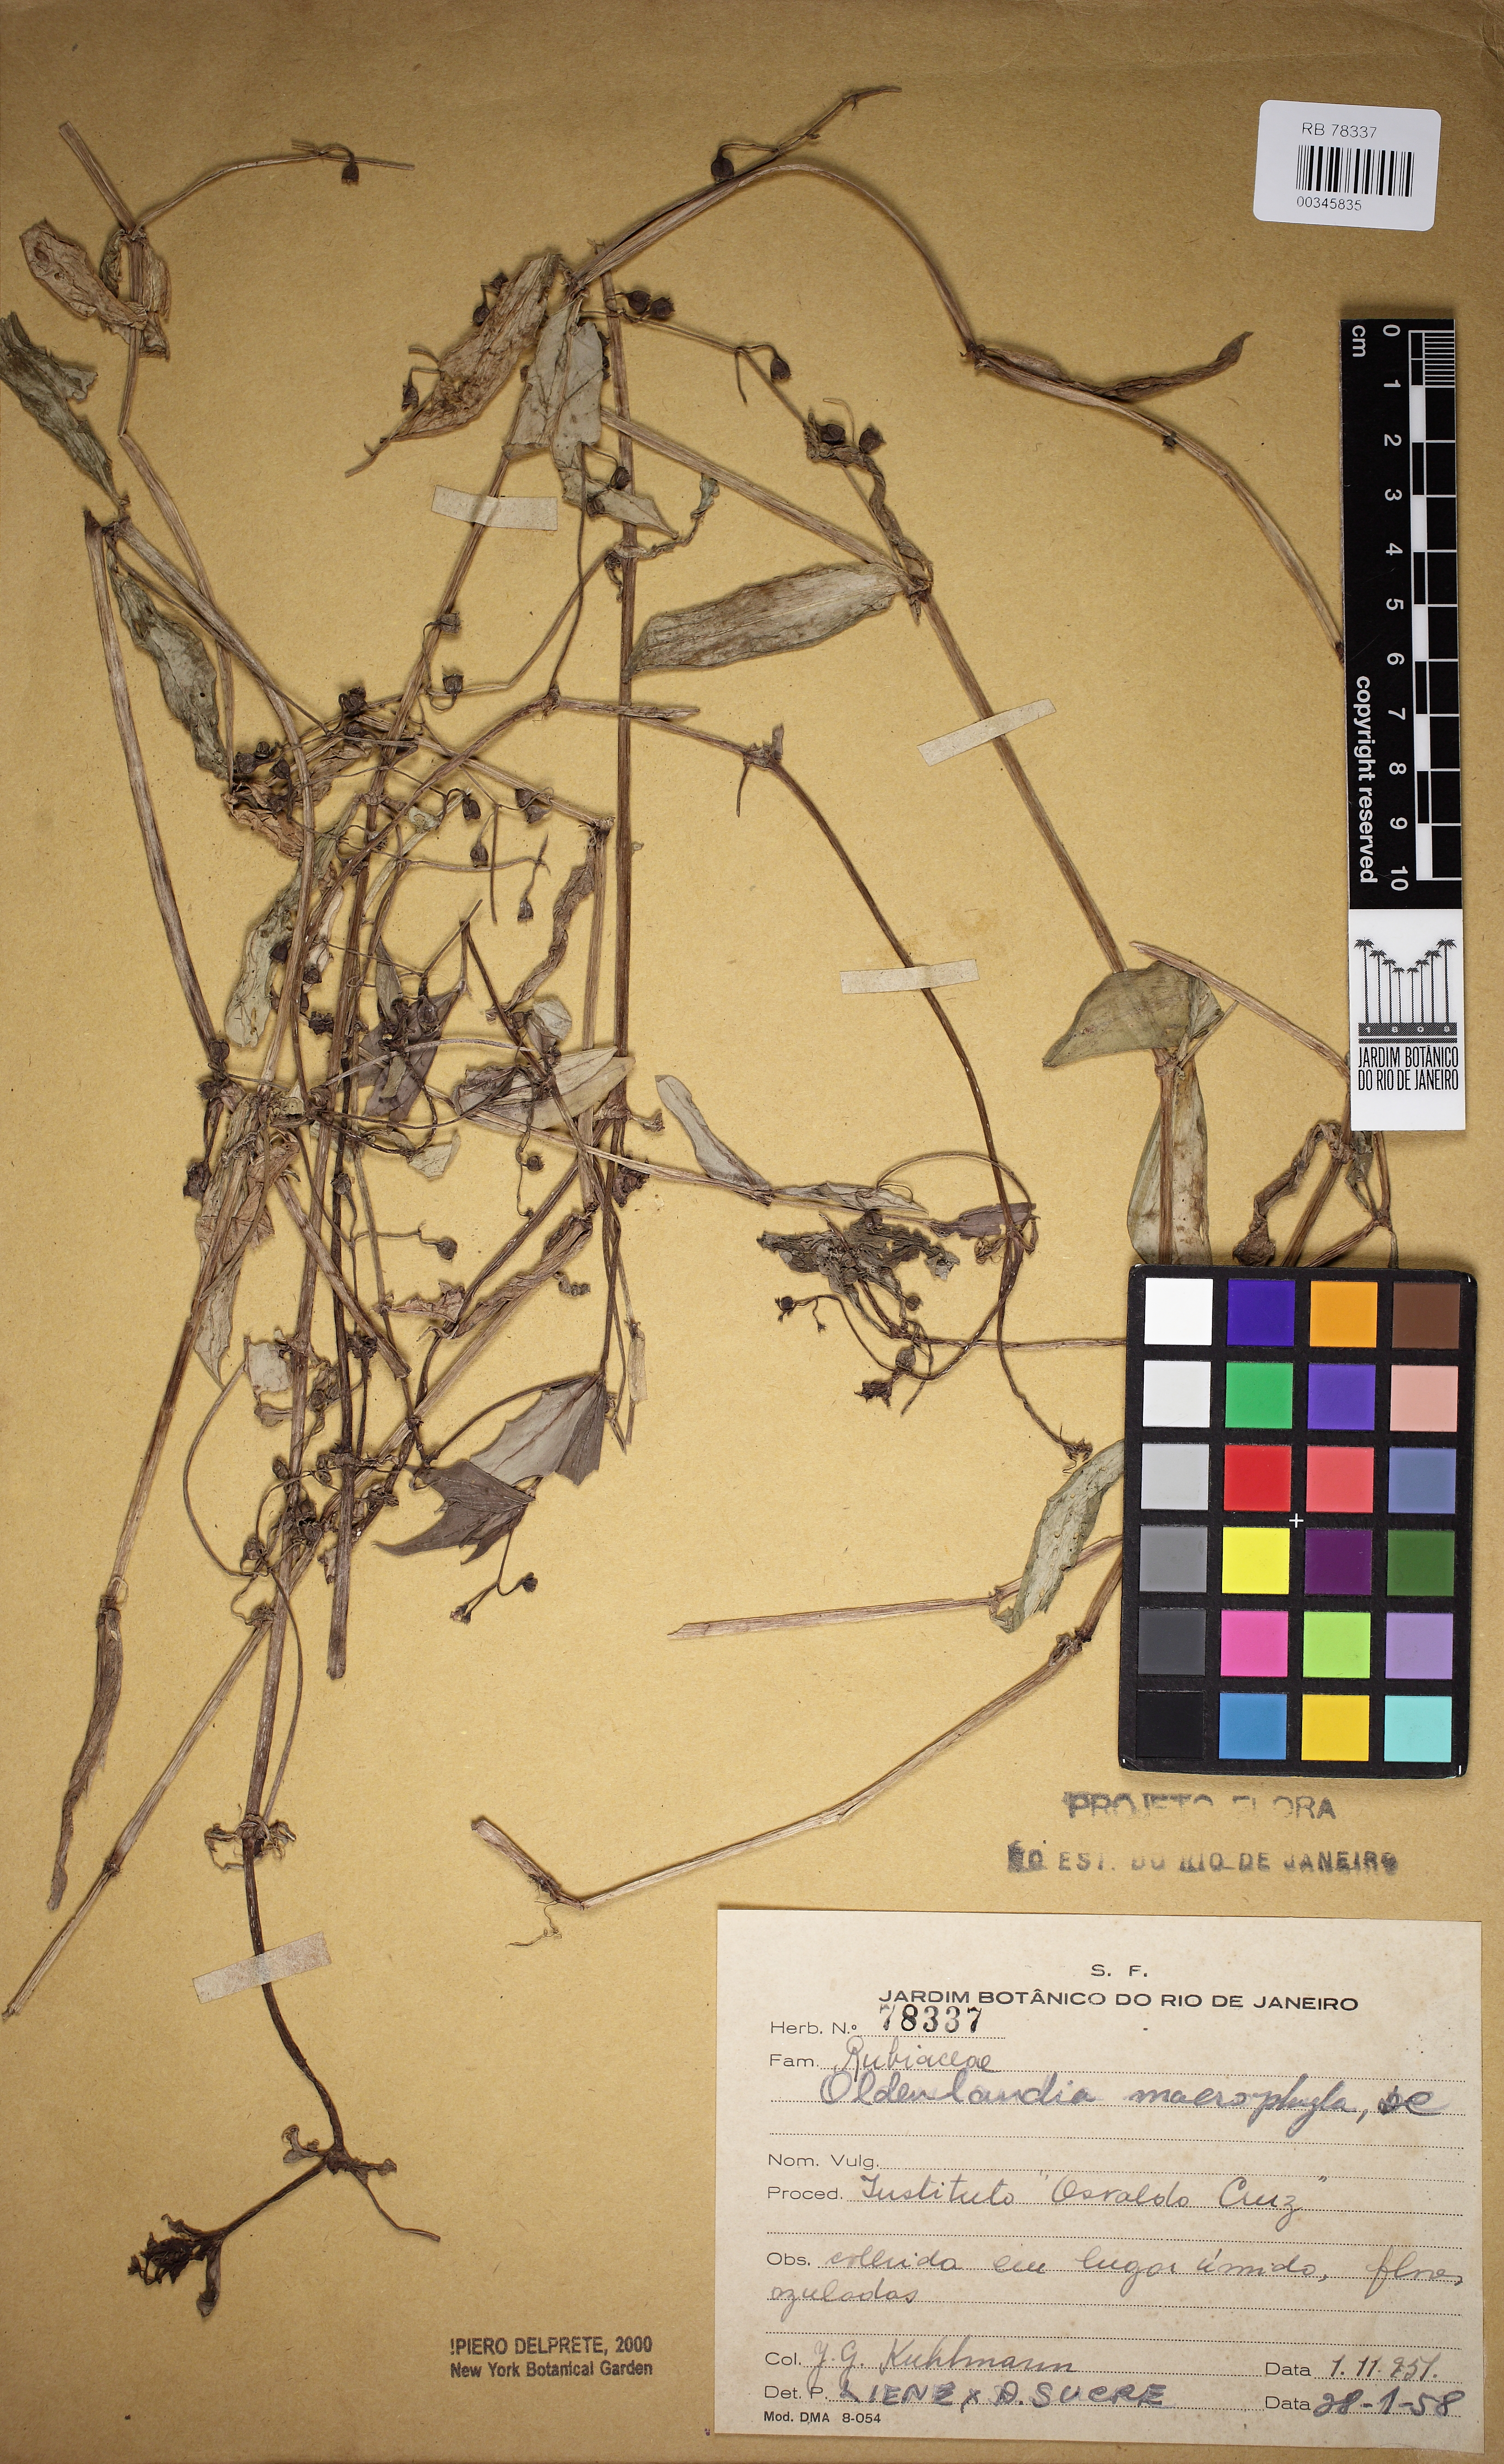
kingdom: Plantae
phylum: Tracheophyta
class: Magnoliopsida
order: Gentianales
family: Rubiaceae
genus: Pentodon
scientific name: Pentodon pentandrus
